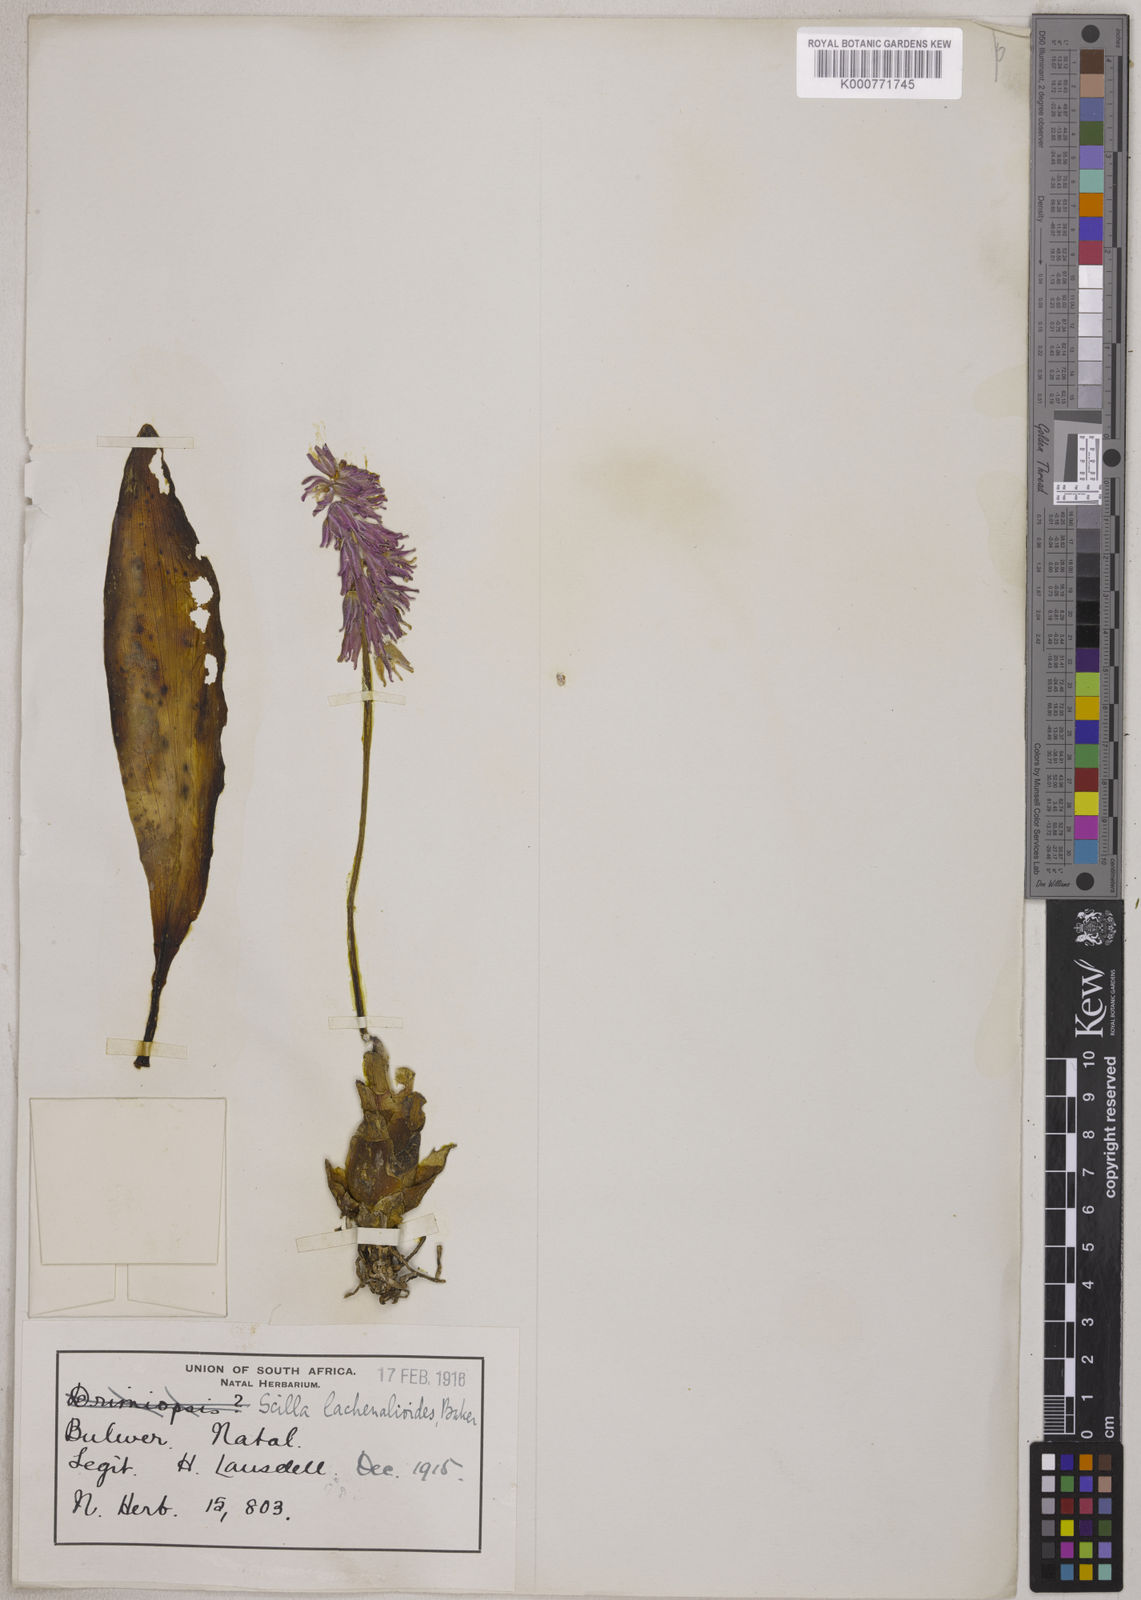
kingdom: Plantae
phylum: Tracheophyta
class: Liliopsida
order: Asparagales
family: Asparagaceae
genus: Resnova
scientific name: Resnova lachenalioides
